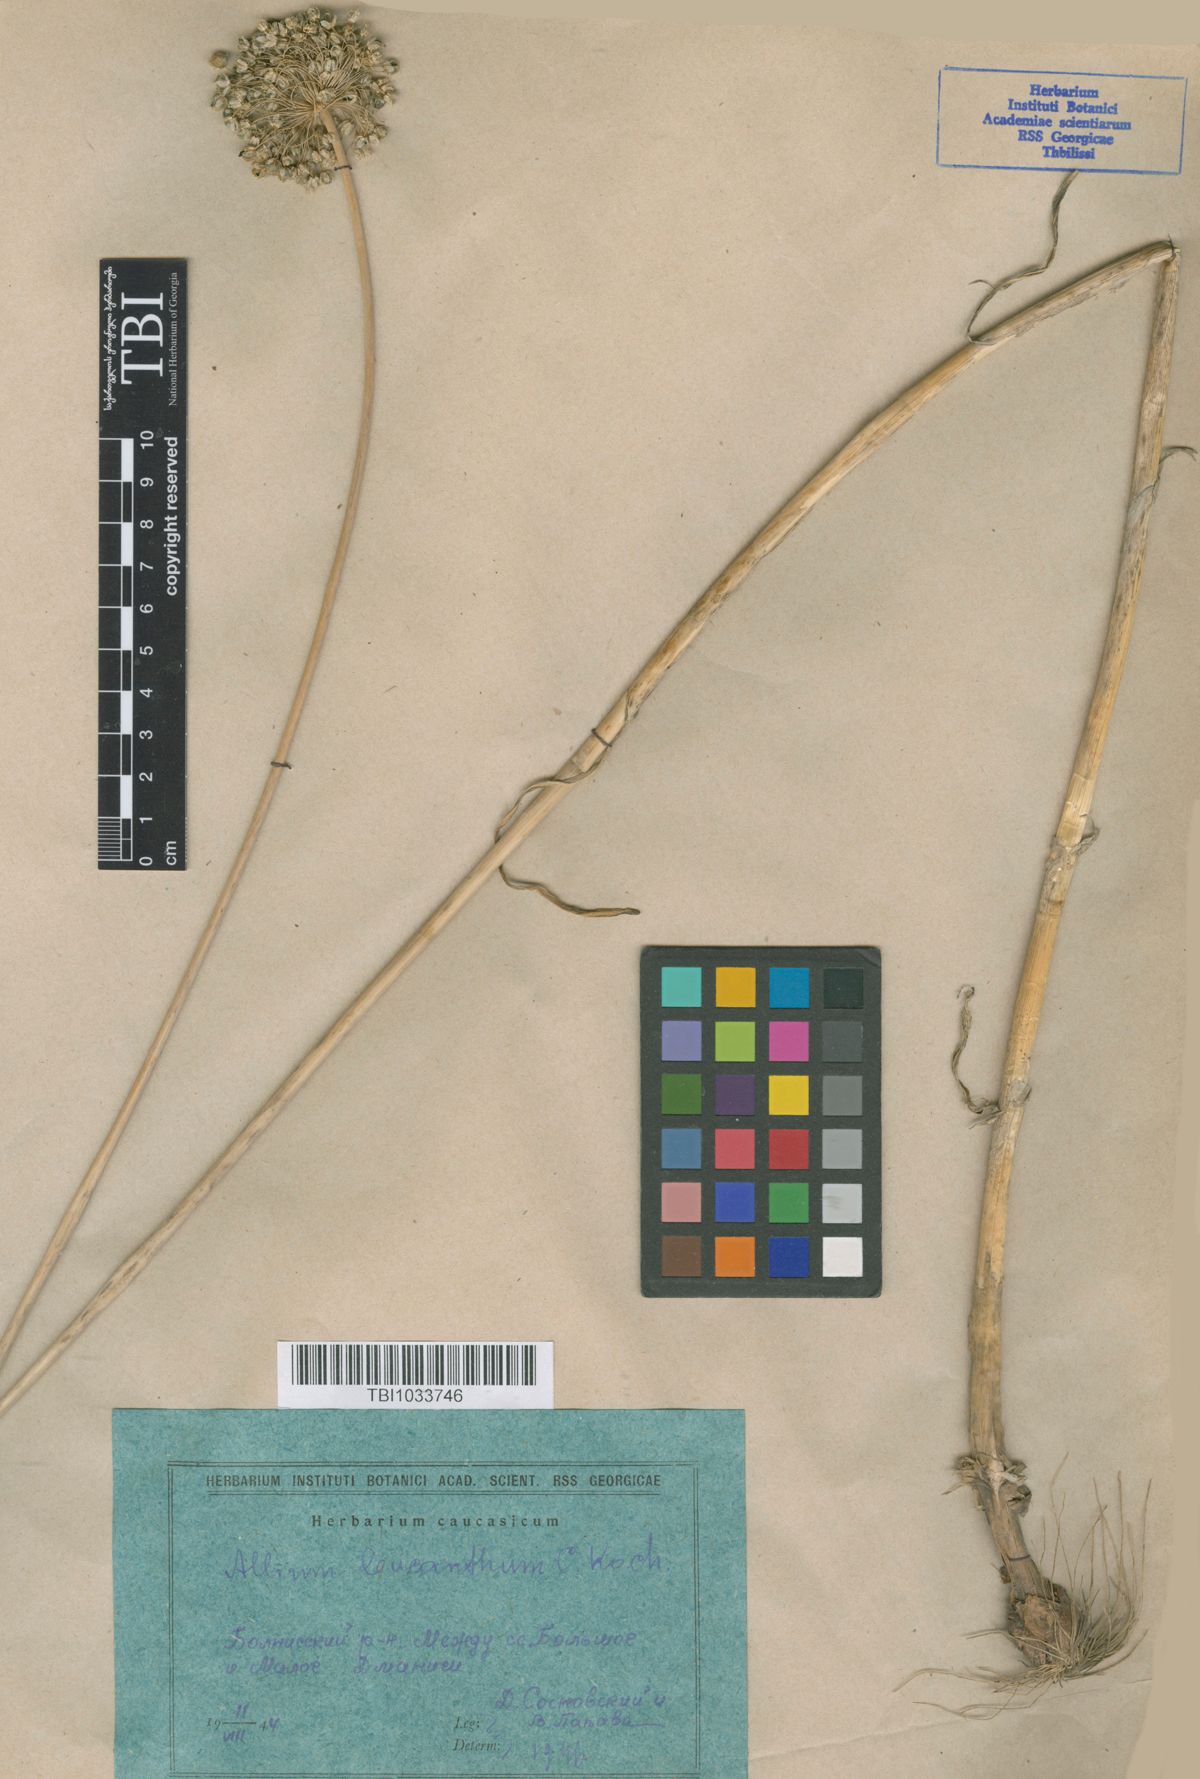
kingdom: Plantae
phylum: Tracheophyta
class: Liliopsida
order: Asparagales
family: Amaryllidaceae
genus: Allium
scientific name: Allium ampeloprasum
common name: Wild leek
